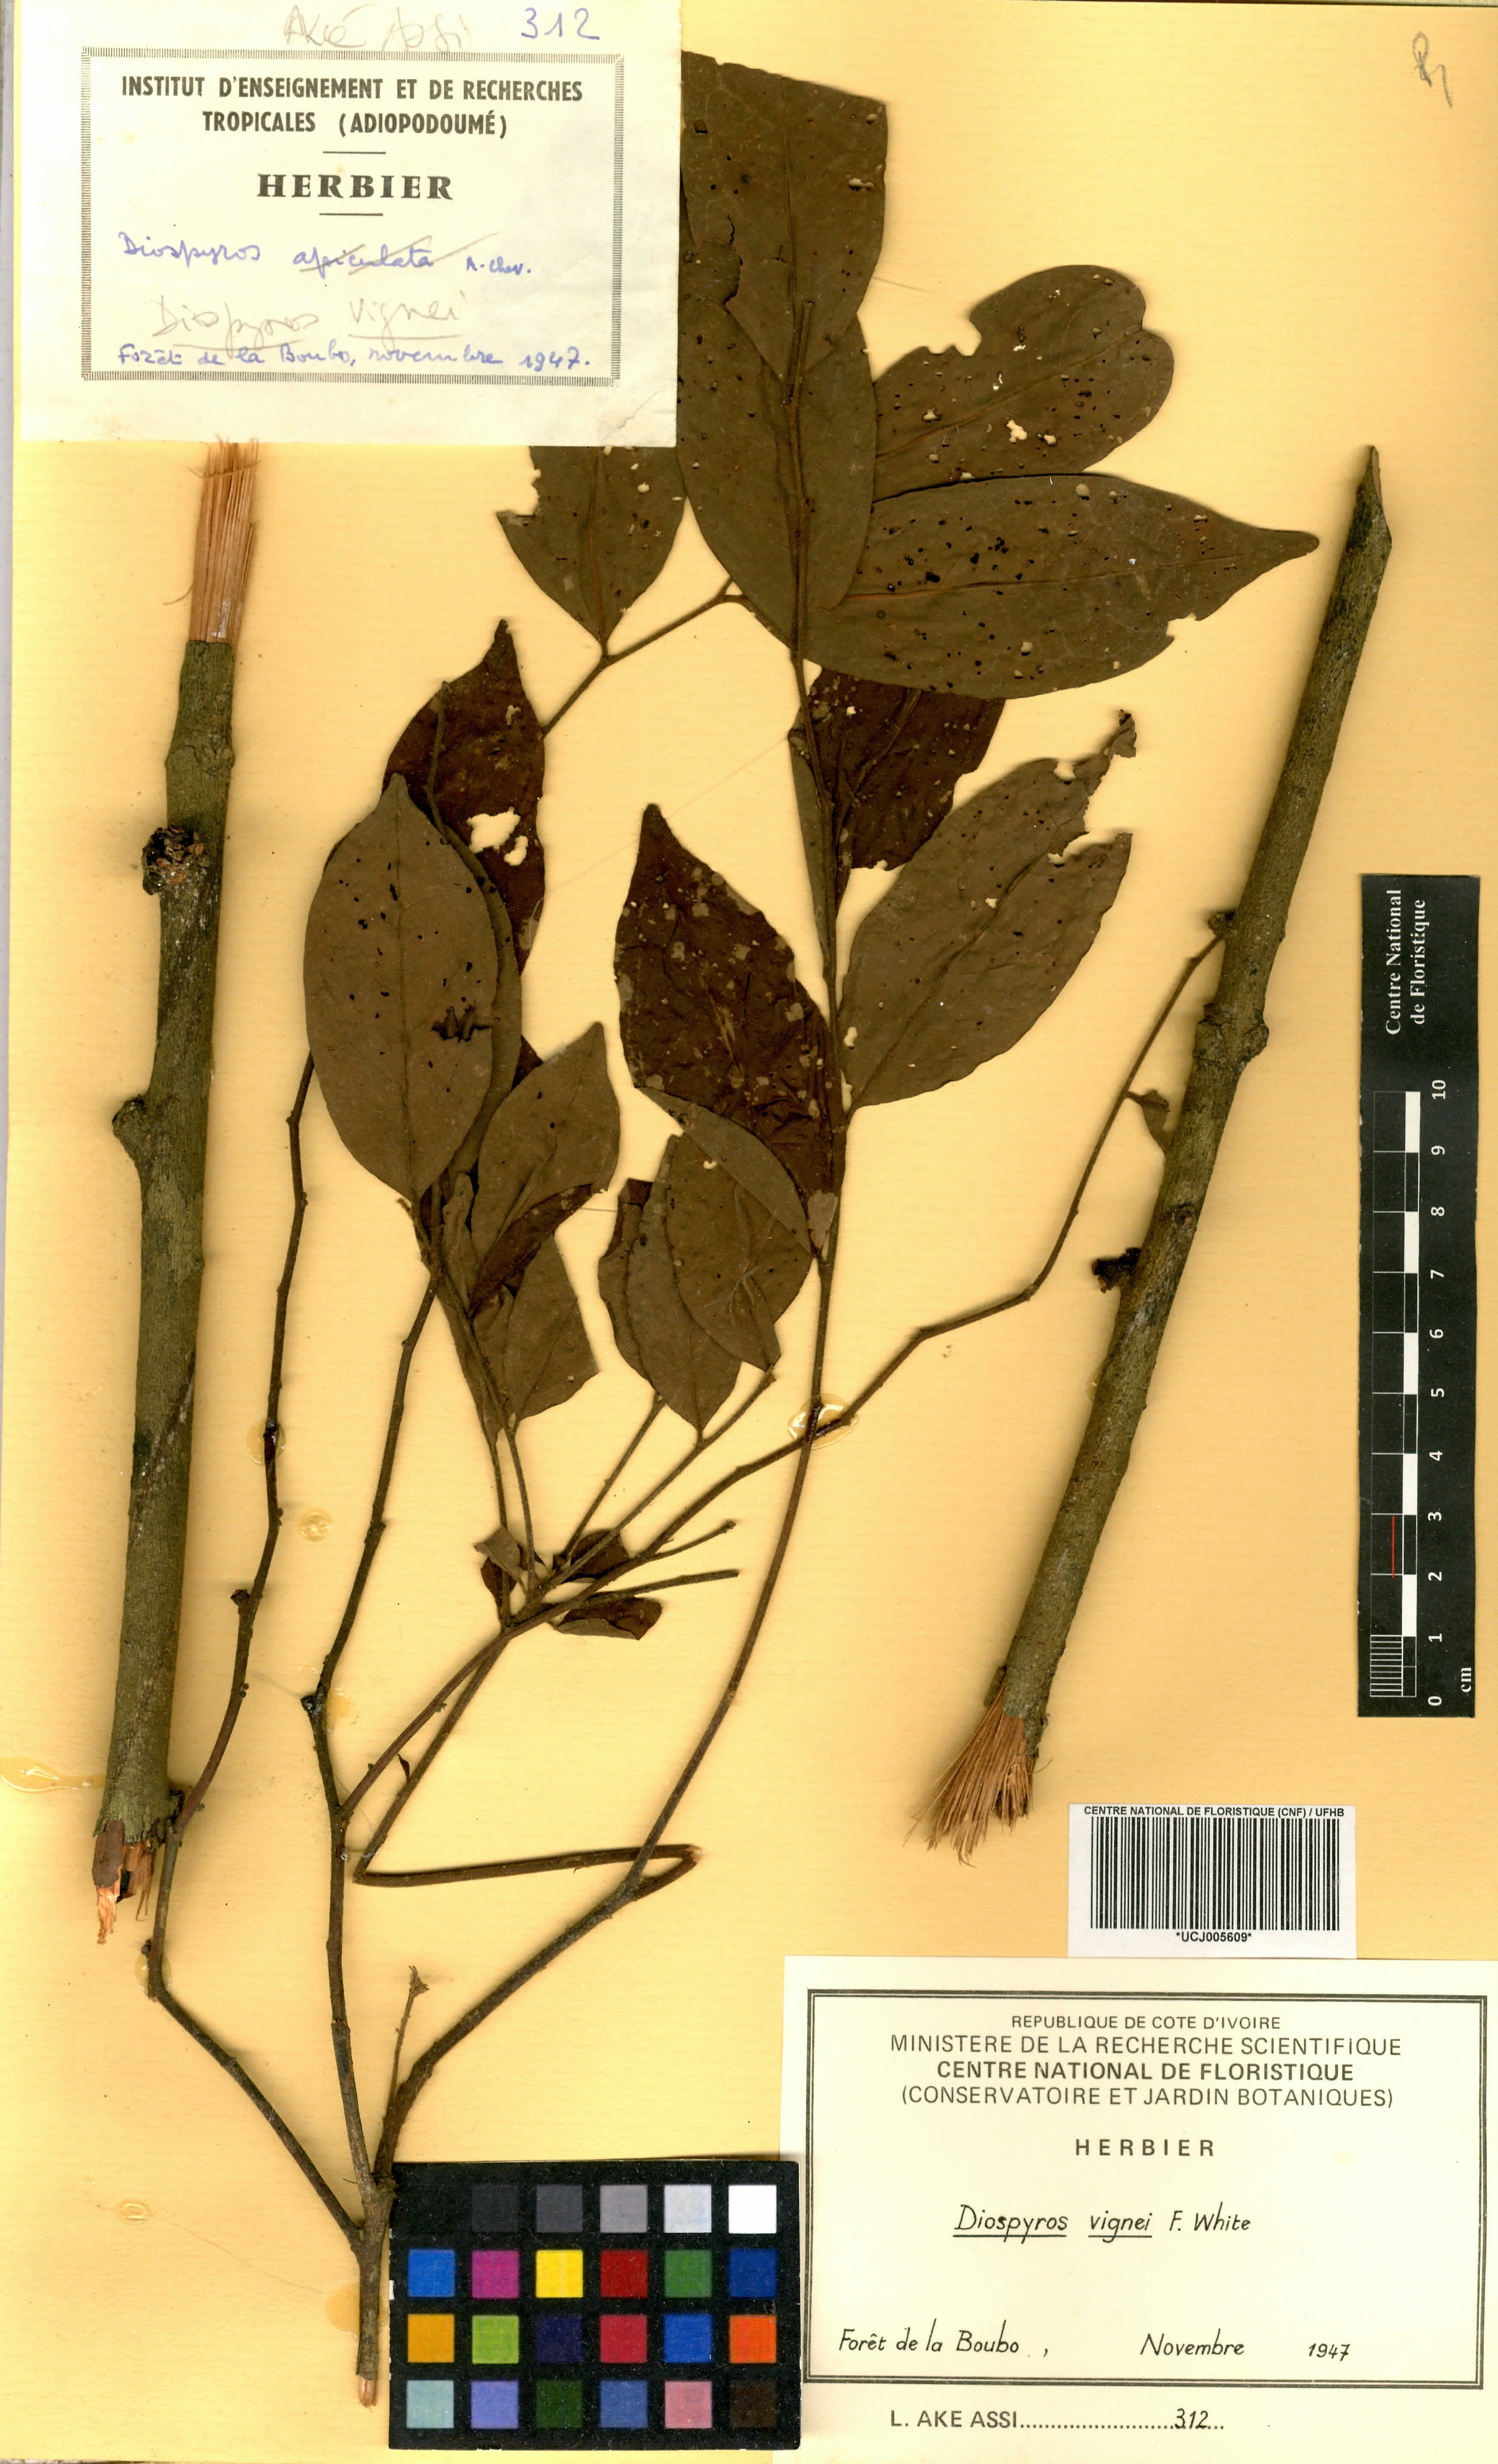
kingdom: Plantae
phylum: Tracheophyta
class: Magnoliopsida
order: Ericales
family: Ebenaceae
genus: Diospyros
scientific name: Diospyros vignei
